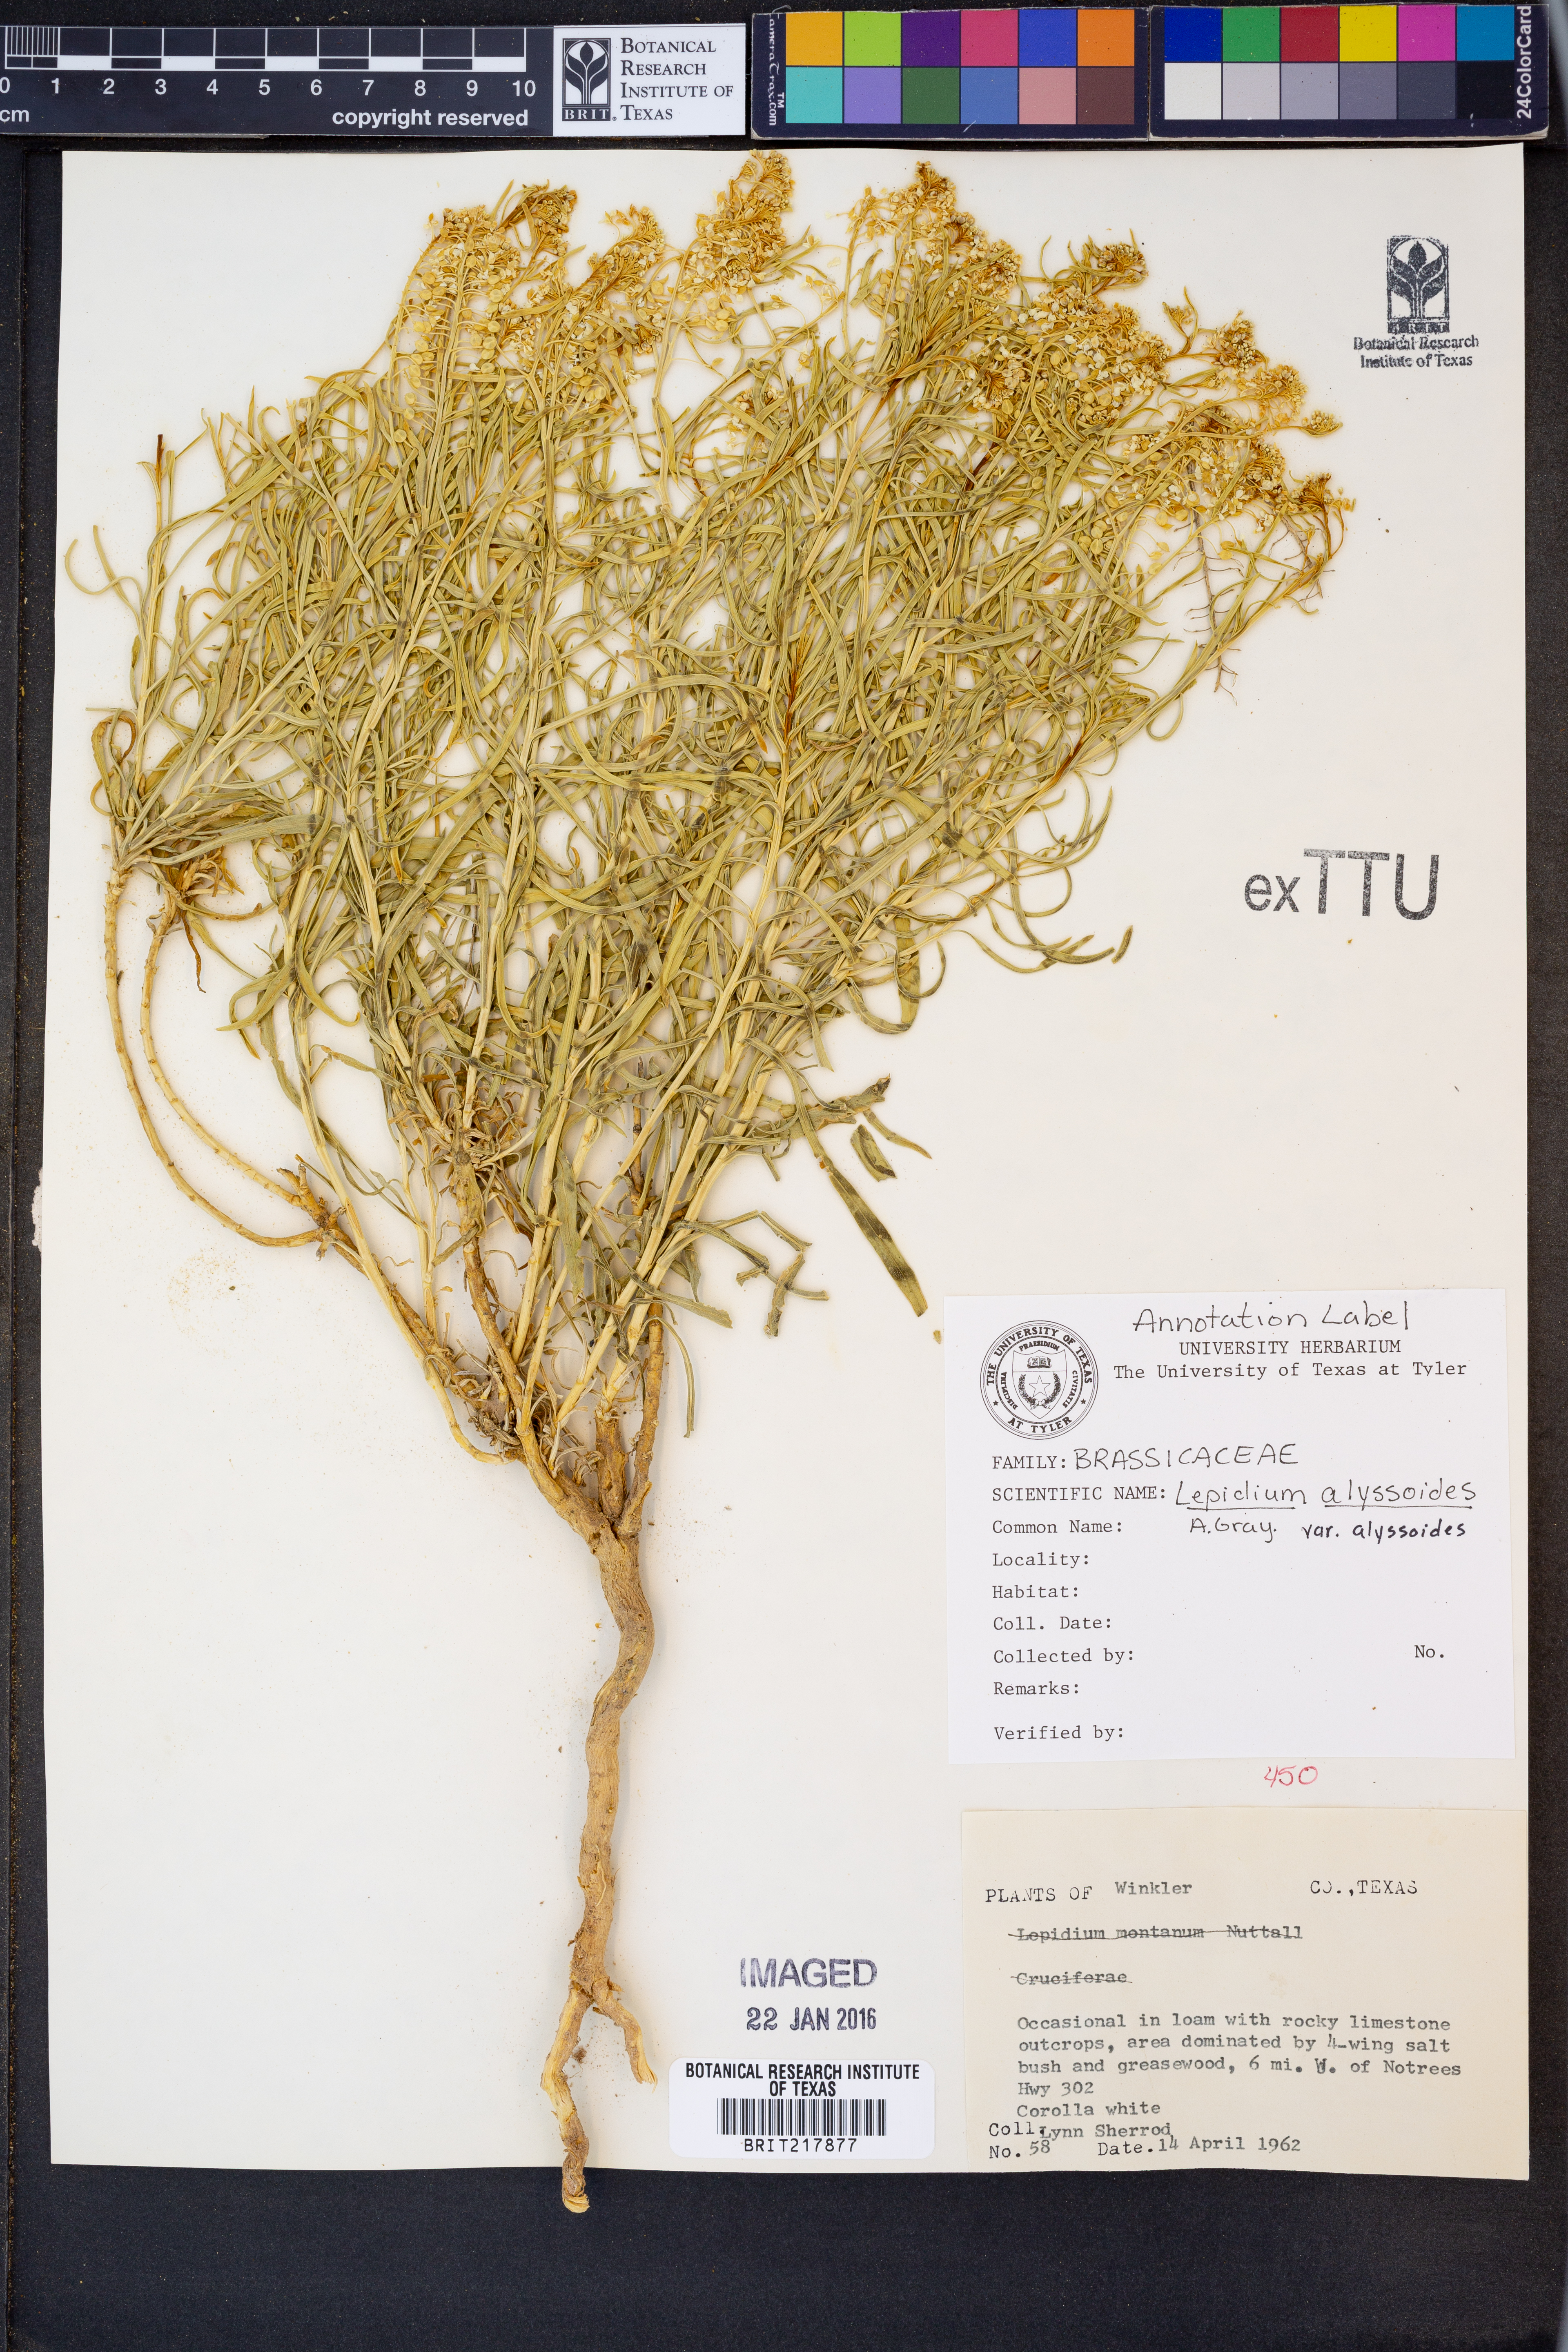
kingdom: Plantae
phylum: Tracheophyta
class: Magnoliopsida
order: Brassicales
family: Brassicaceae
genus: Lepidium
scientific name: Lepidium alyssoides
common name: Mesa pepperweed
